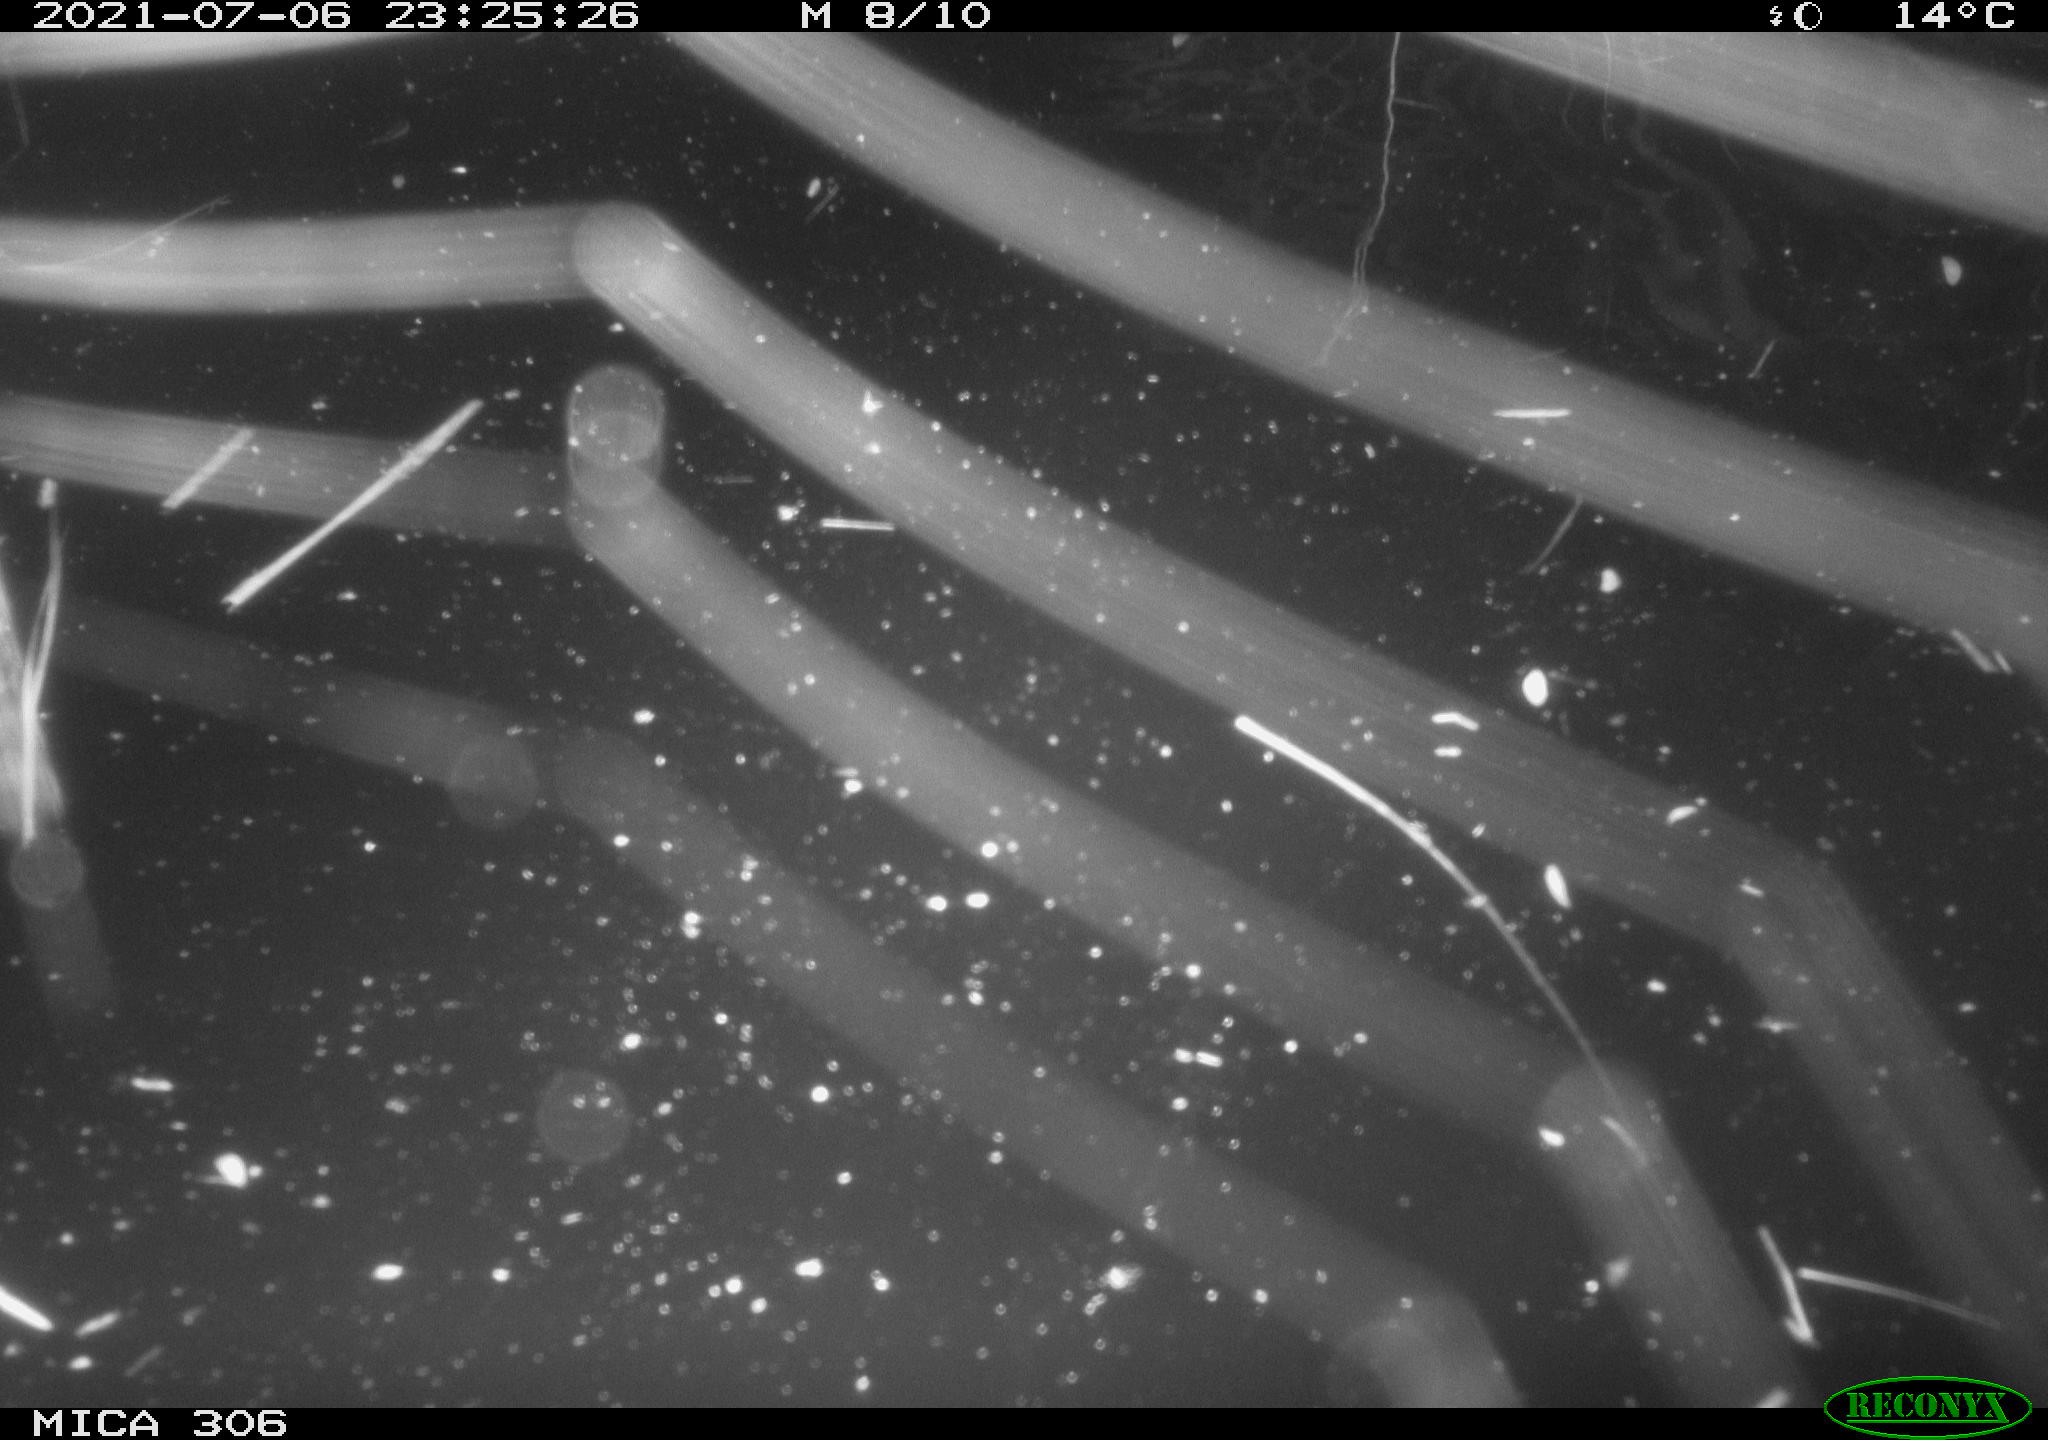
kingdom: Animalia
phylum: Chordata
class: Mammalia
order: Rodentia
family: Cricetidae
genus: Ondatra
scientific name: Ondatra zibethicus
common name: Muskrat
